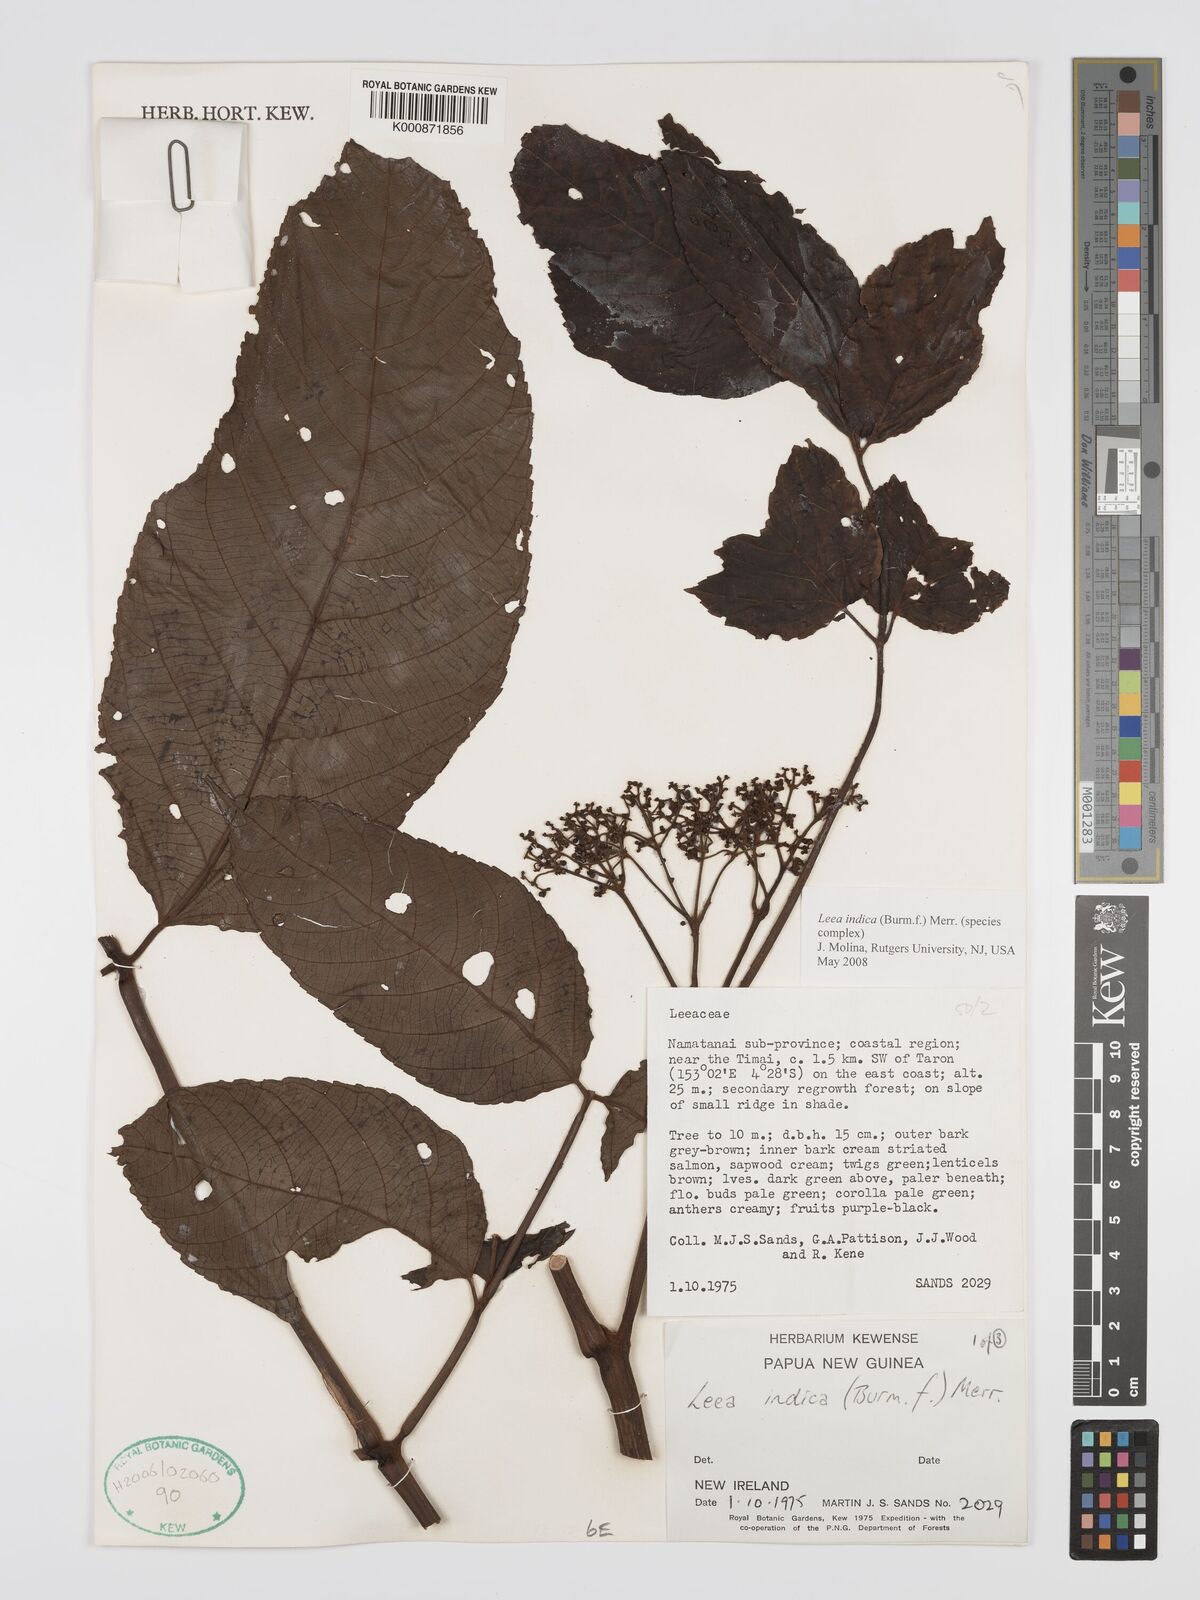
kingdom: Plantae
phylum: Tracheophyta
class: Magnoliopsida
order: Vitales
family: Vitaceae
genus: Leea
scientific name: Leea indica
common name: Bandicoot-berry
